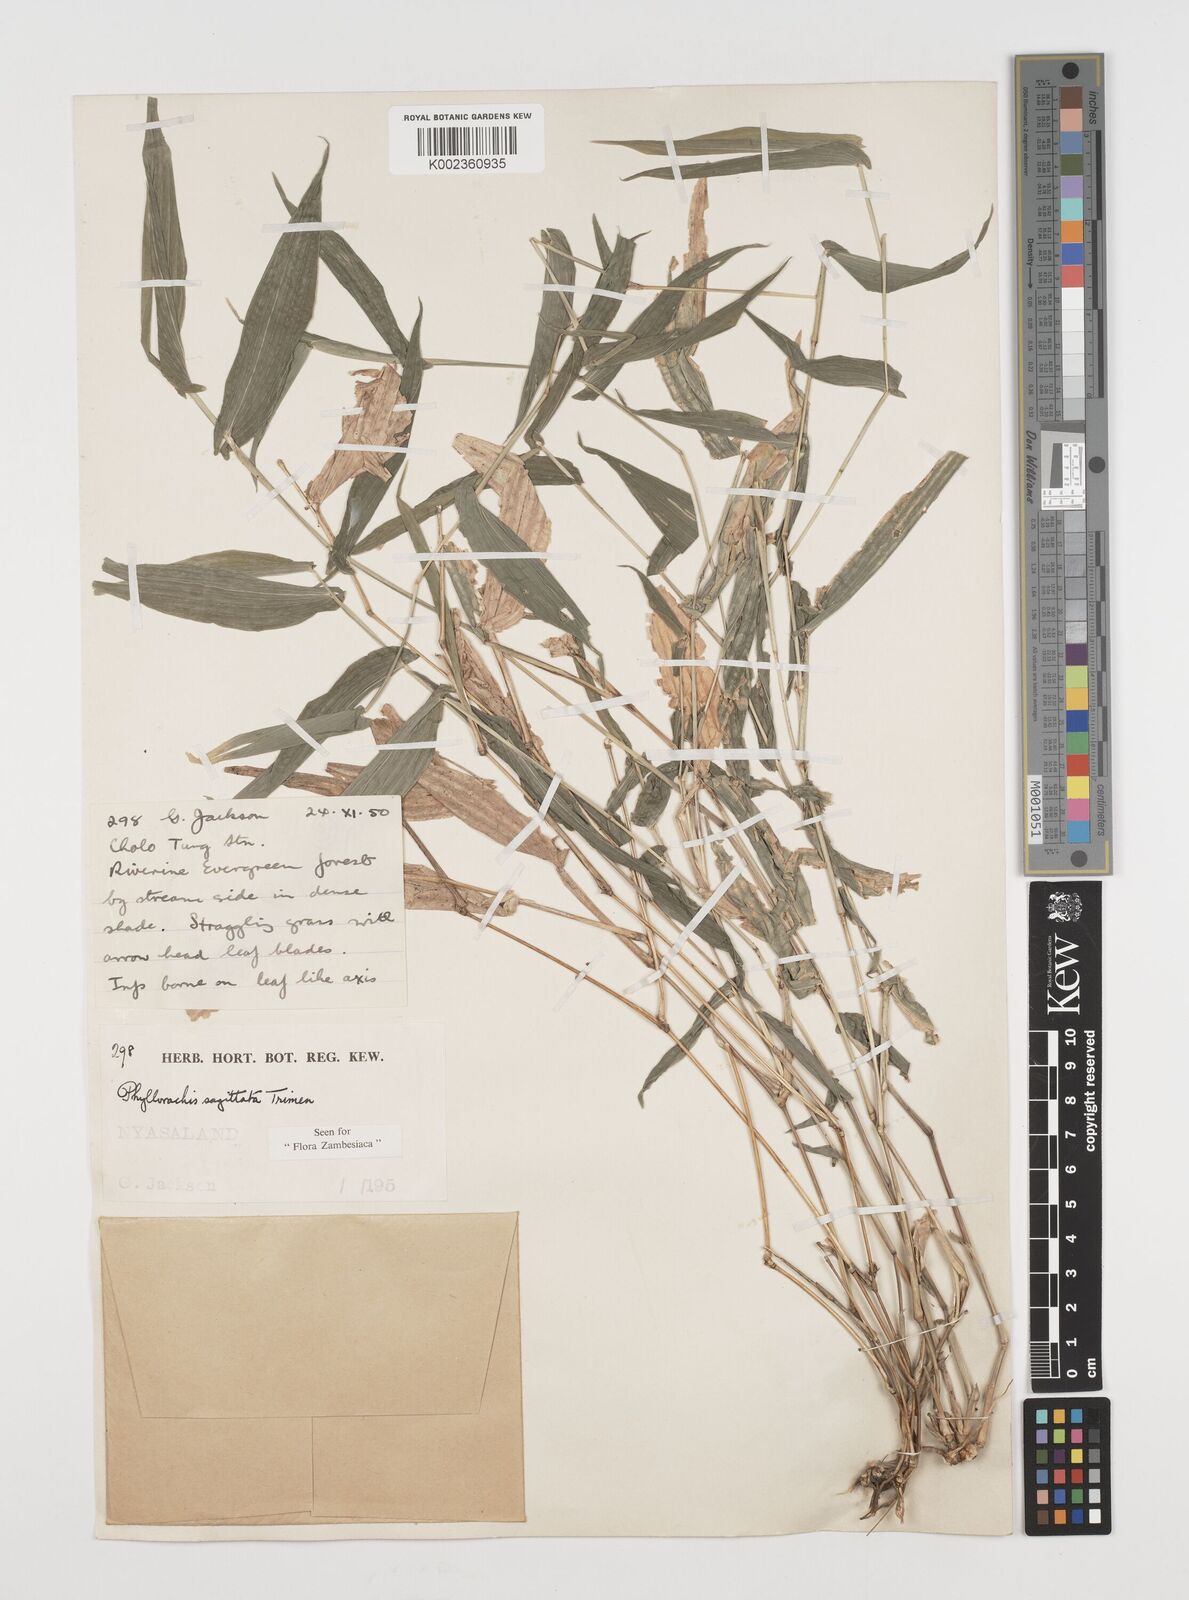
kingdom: Plantae
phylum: Tracheophyta
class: Liliopsida
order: Poales
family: Poaceae
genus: Phyllorachis
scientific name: Phyllorachis sagittata
